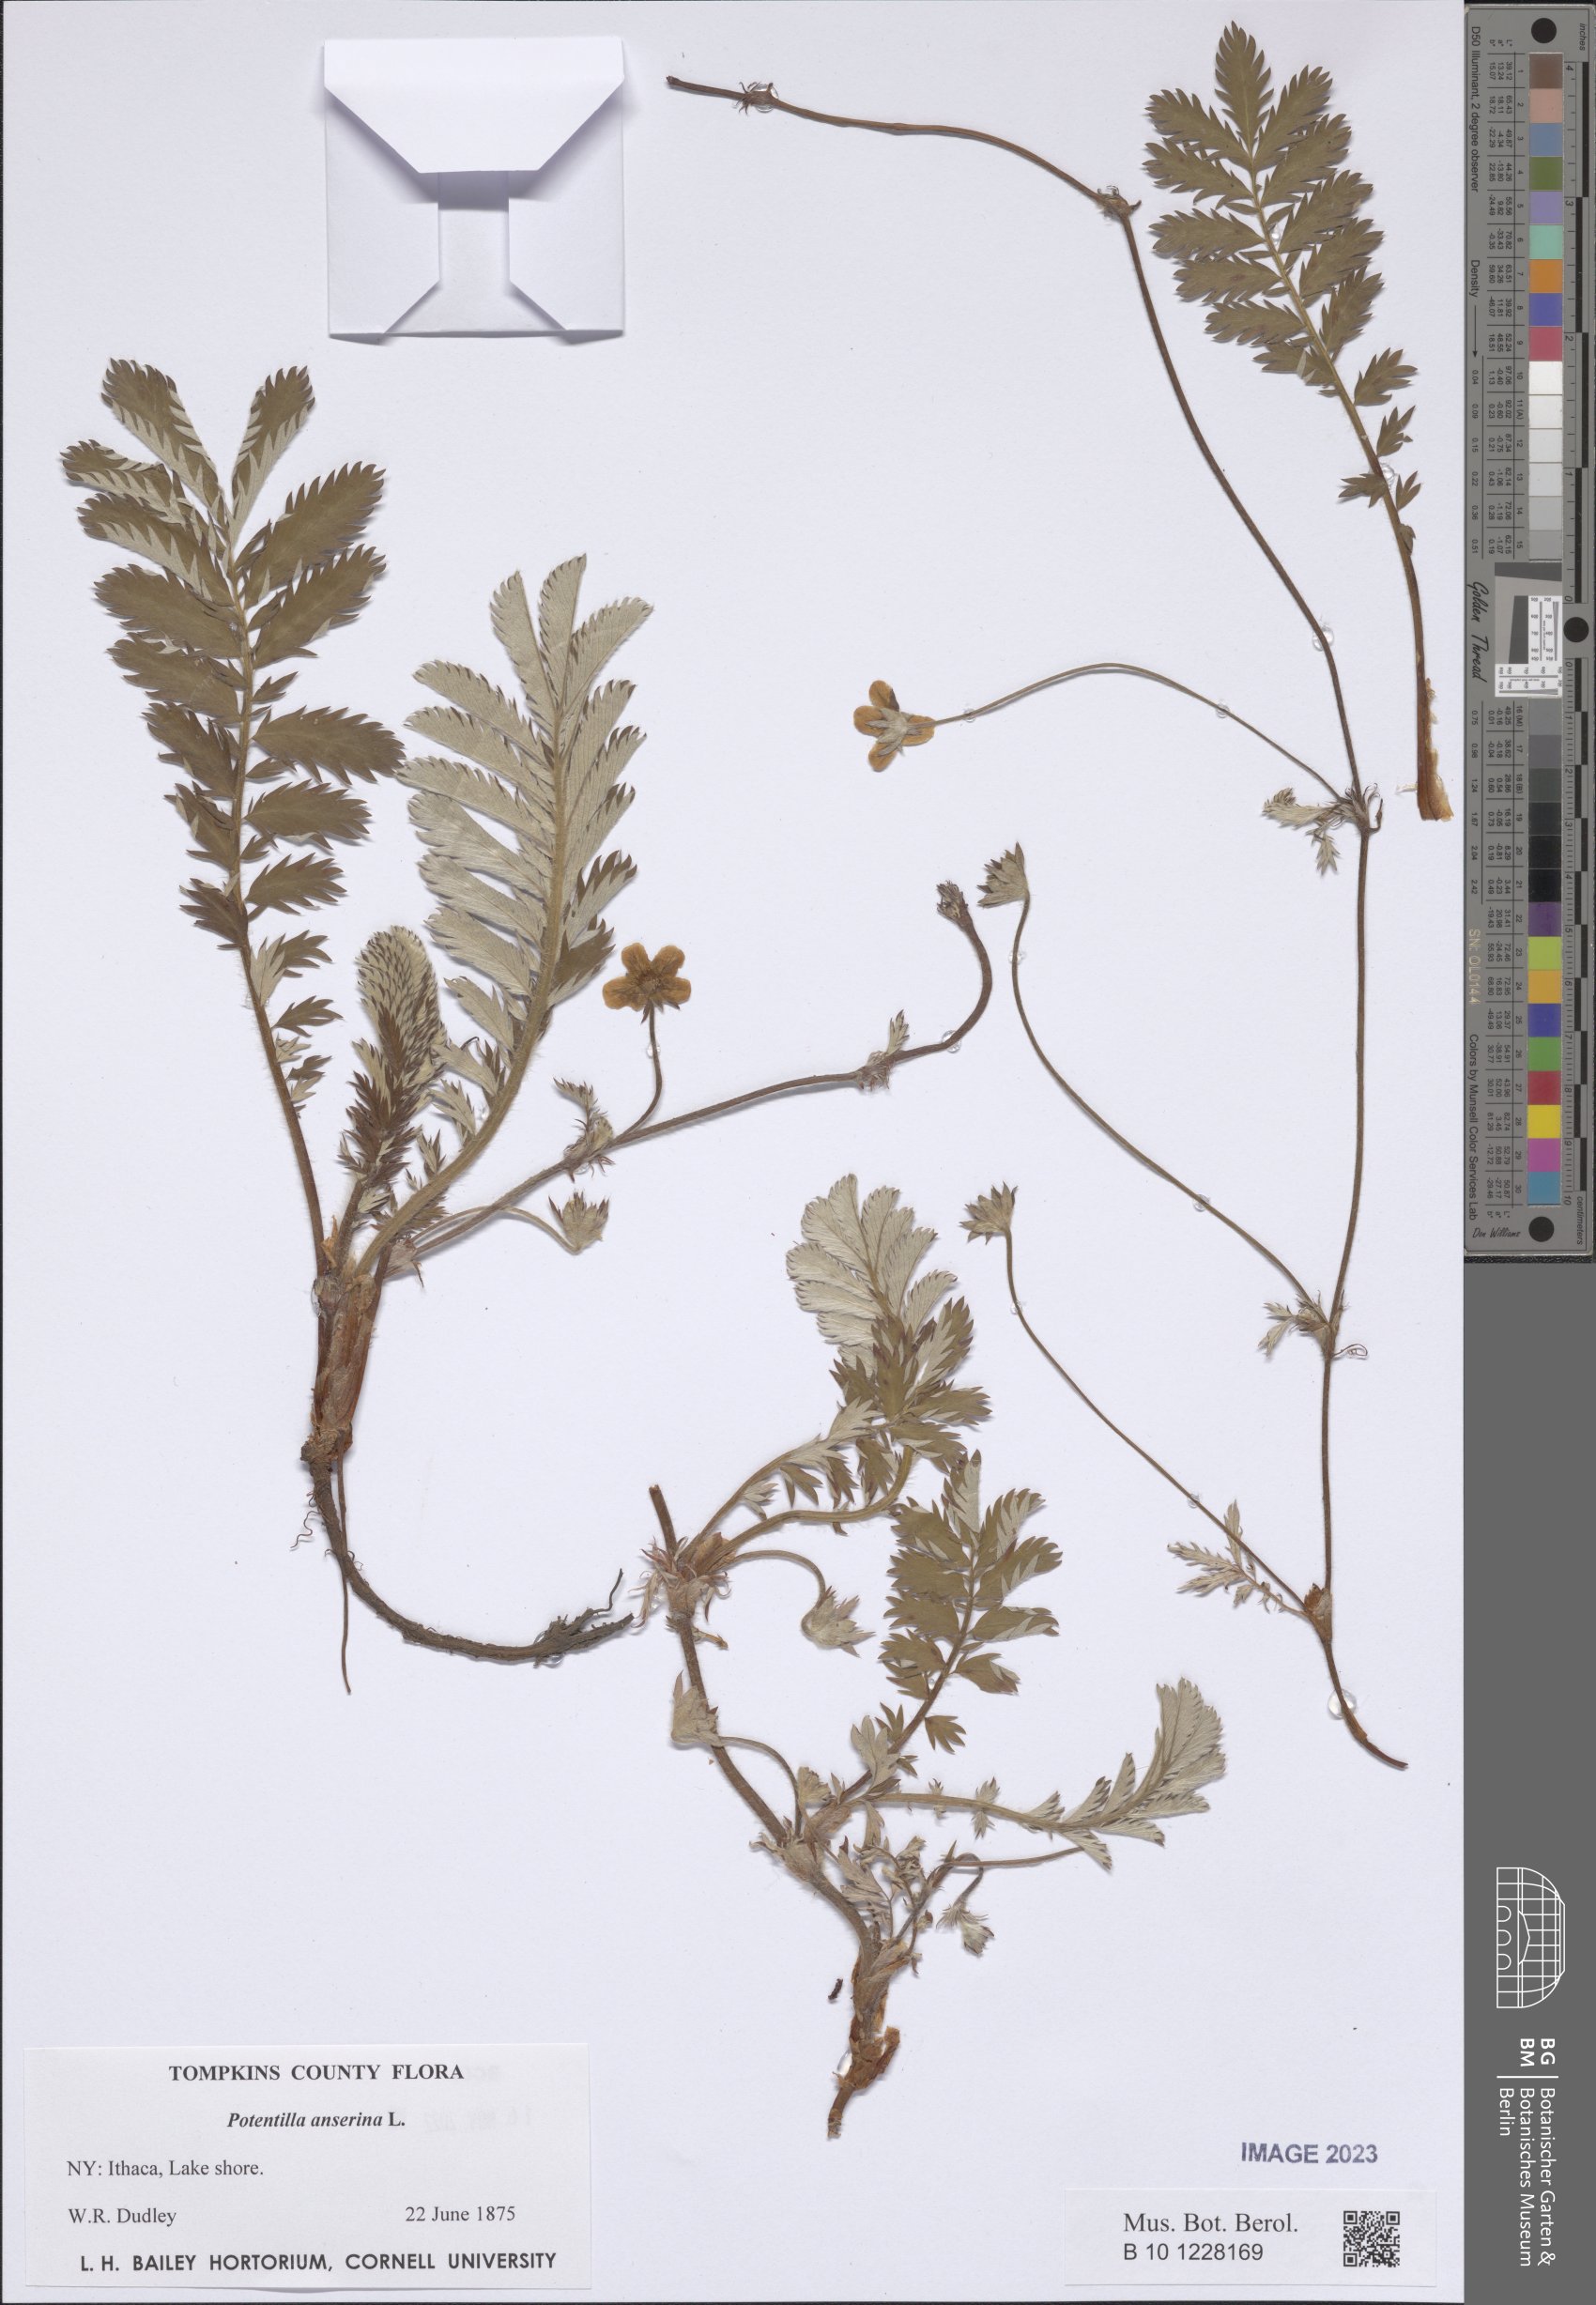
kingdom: Plantae
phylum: Tracheophyta
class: Magnoliopsida
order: Rosales
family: Rosaceae
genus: Argentina
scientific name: Argentina anserina
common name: Common silverweed
